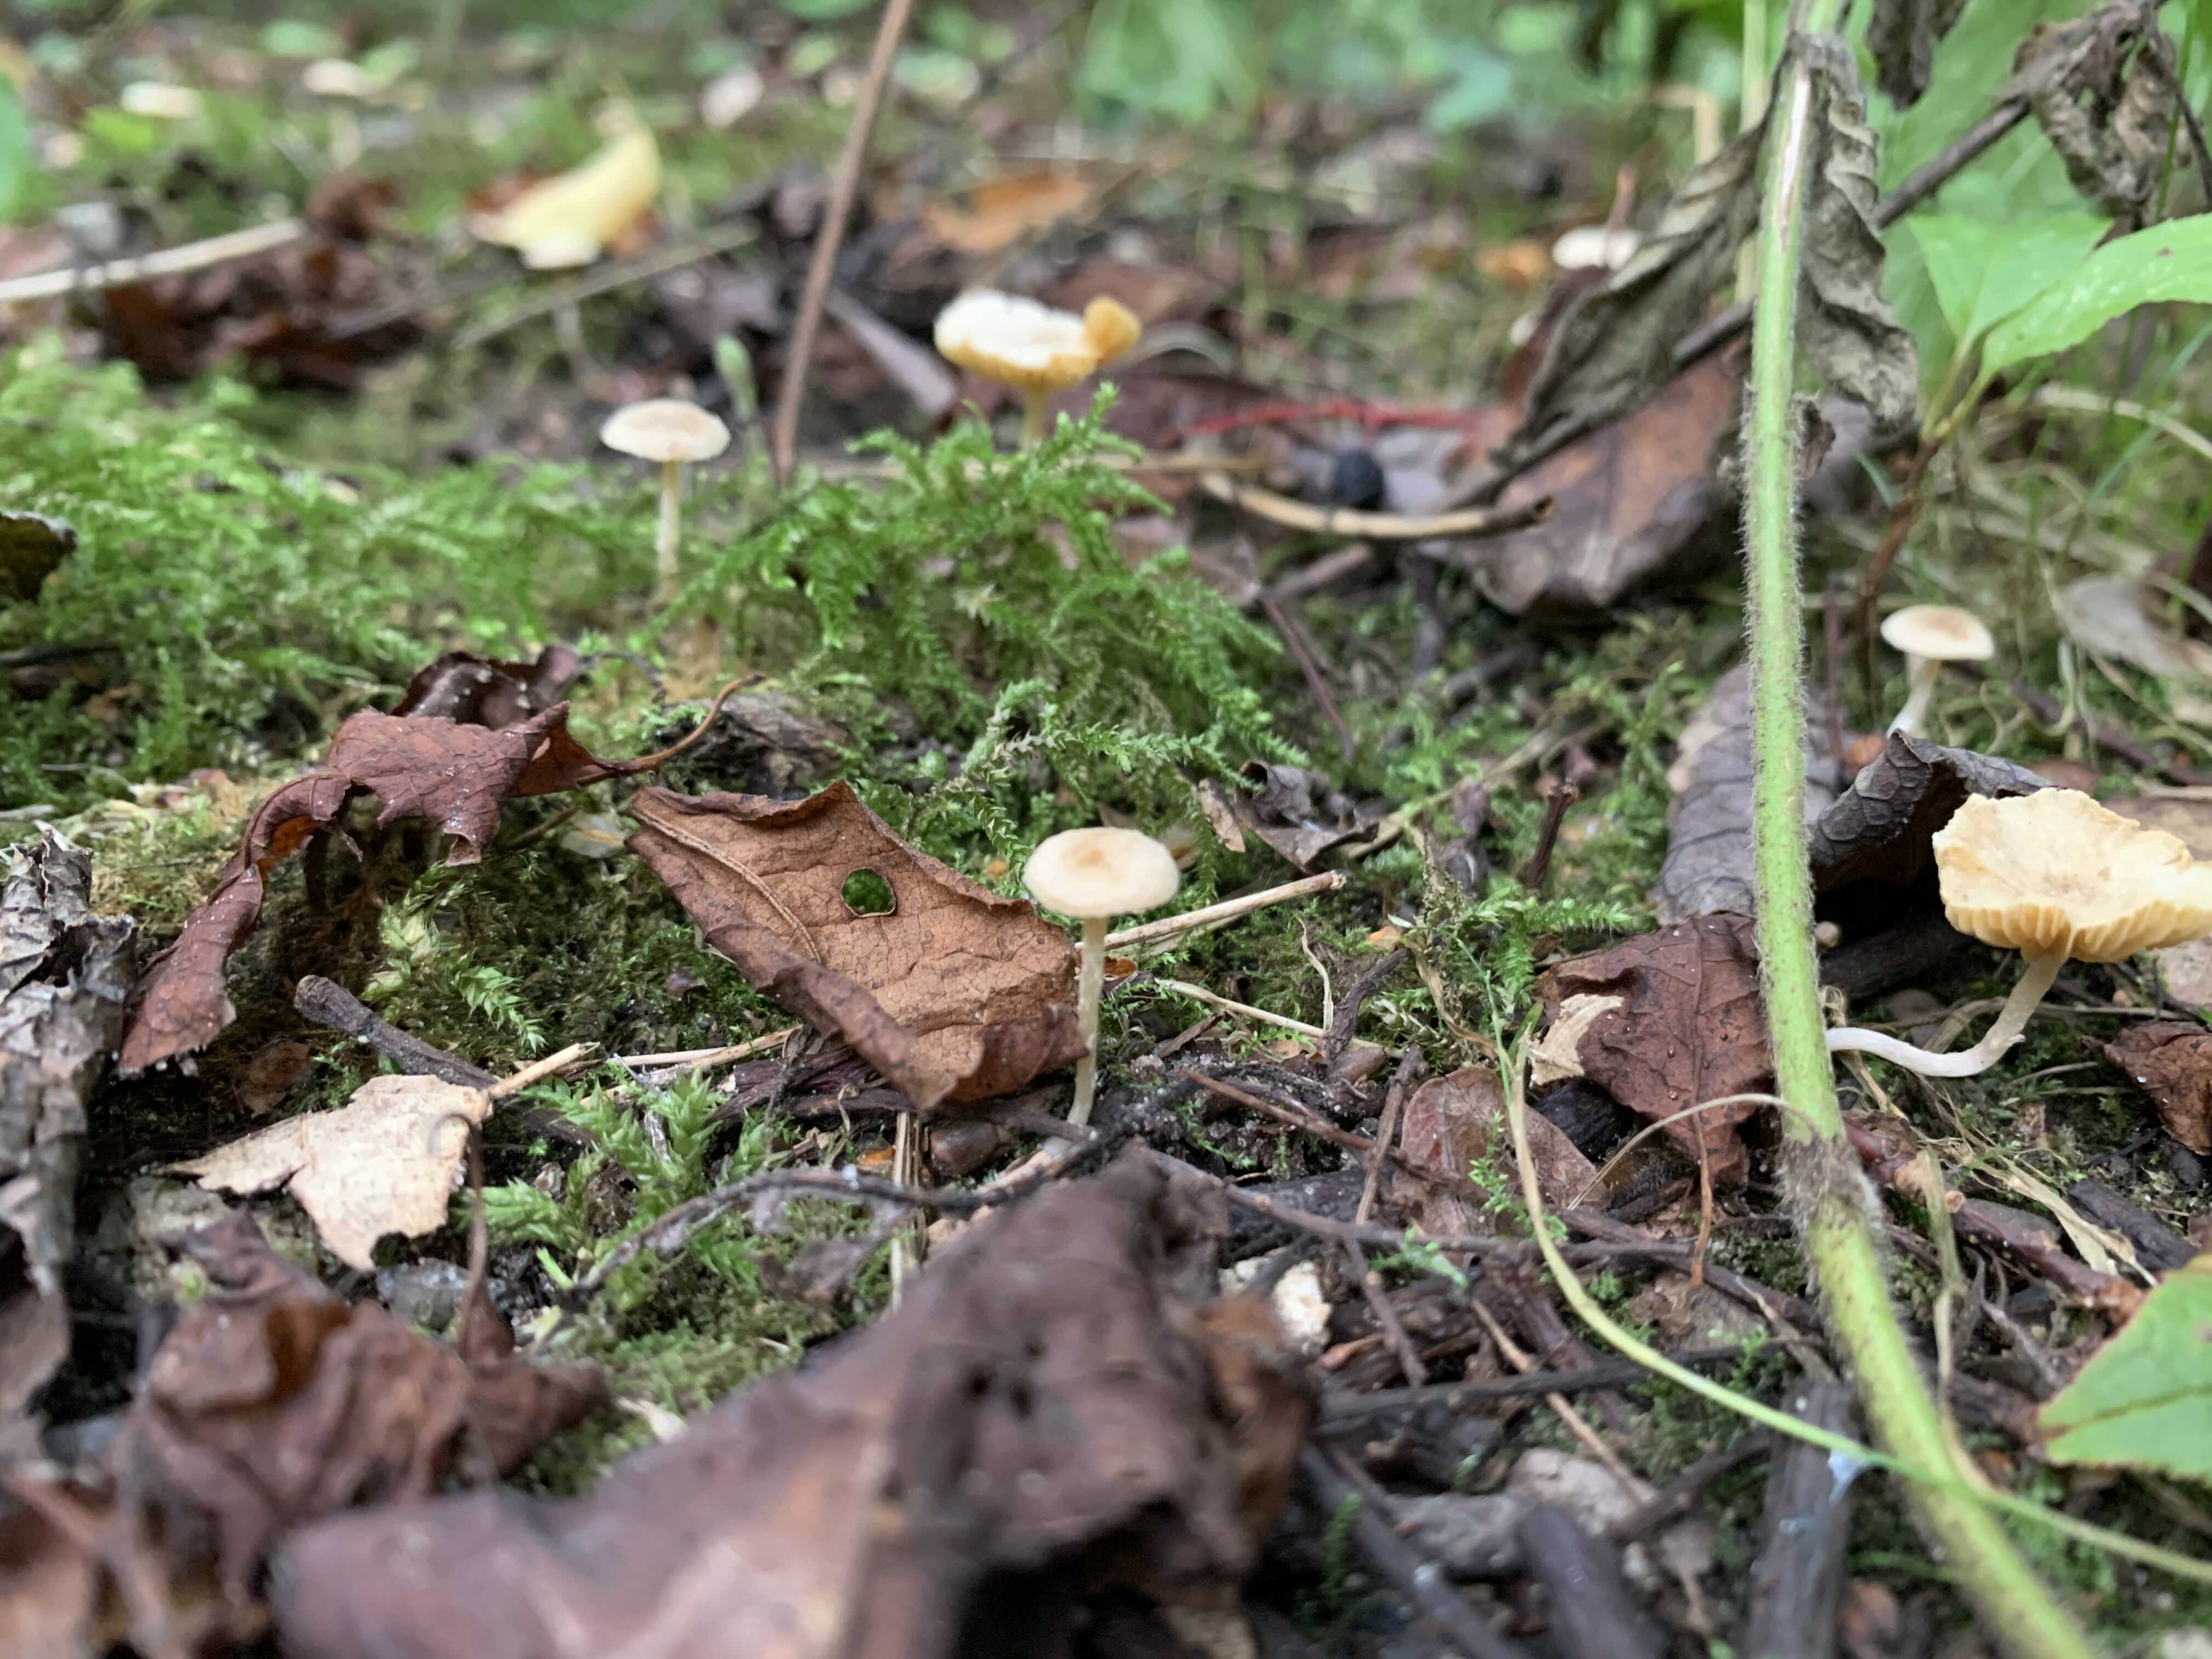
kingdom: Fungi
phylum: Basidiomycota
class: Agaricomycetes
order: Agaricales
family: Tubariaceae
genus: Tubaria
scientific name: Tubaria dispersa
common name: tjørne-fnughat
